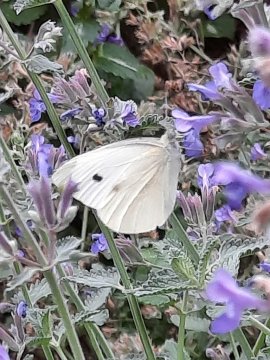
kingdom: Animalia
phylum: Arthropoda
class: Insecta
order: Lepidoptera
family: Pieridae
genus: Pieris
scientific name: Pieris rapae
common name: Cabbage White
